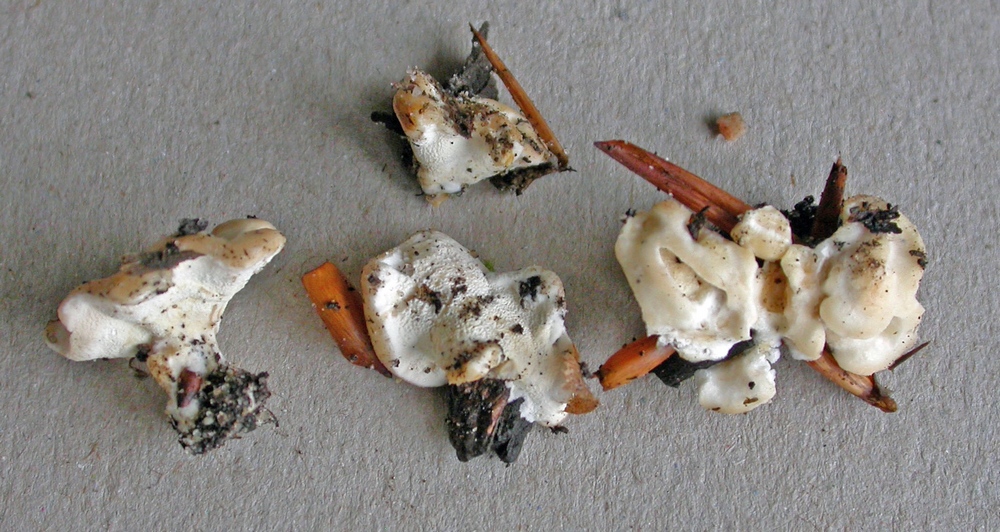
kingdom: Fungi
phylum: Basidiomycota
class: Agaricomycetes
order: Cantharellales
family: Hydnaceae
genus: Sistotrema
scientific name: Sistotrema confluens
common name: stilket kroneskorpe
